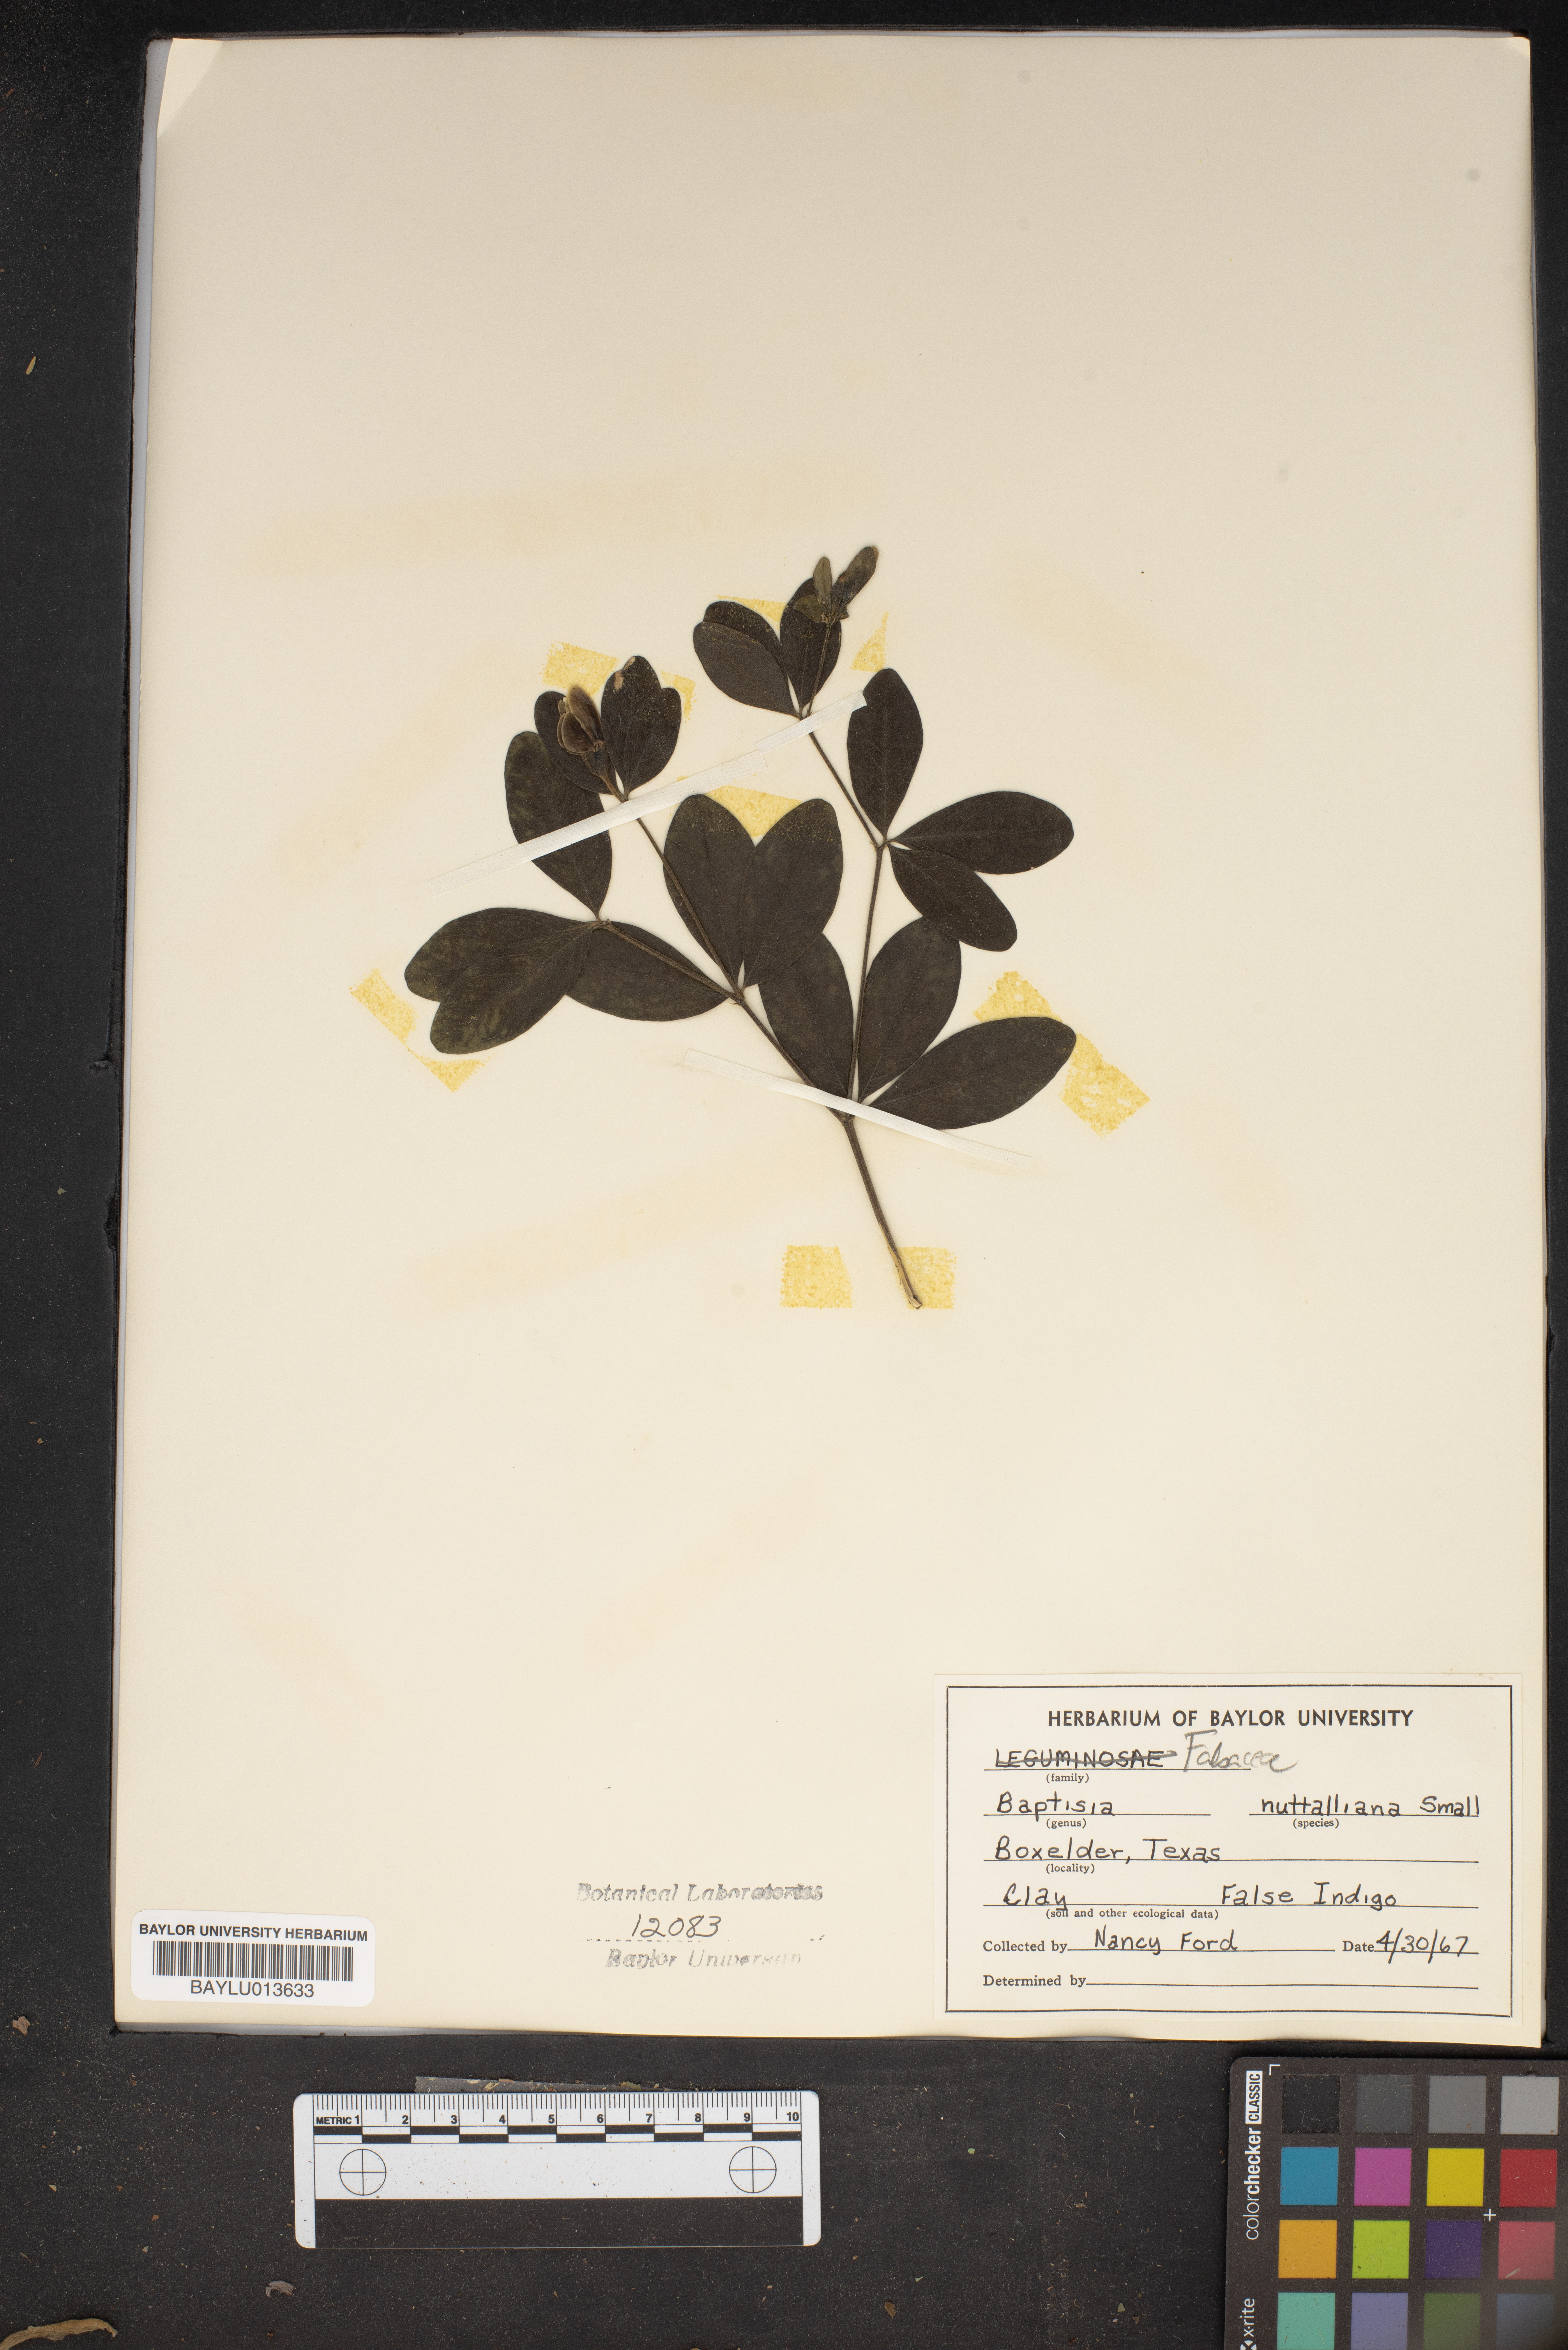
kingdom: Plantae
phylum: Tracheophyta
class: Magnoliopsida
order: Fabales
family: Fabaceae
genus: Baptisia
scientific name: Baptisia nuttalliana
